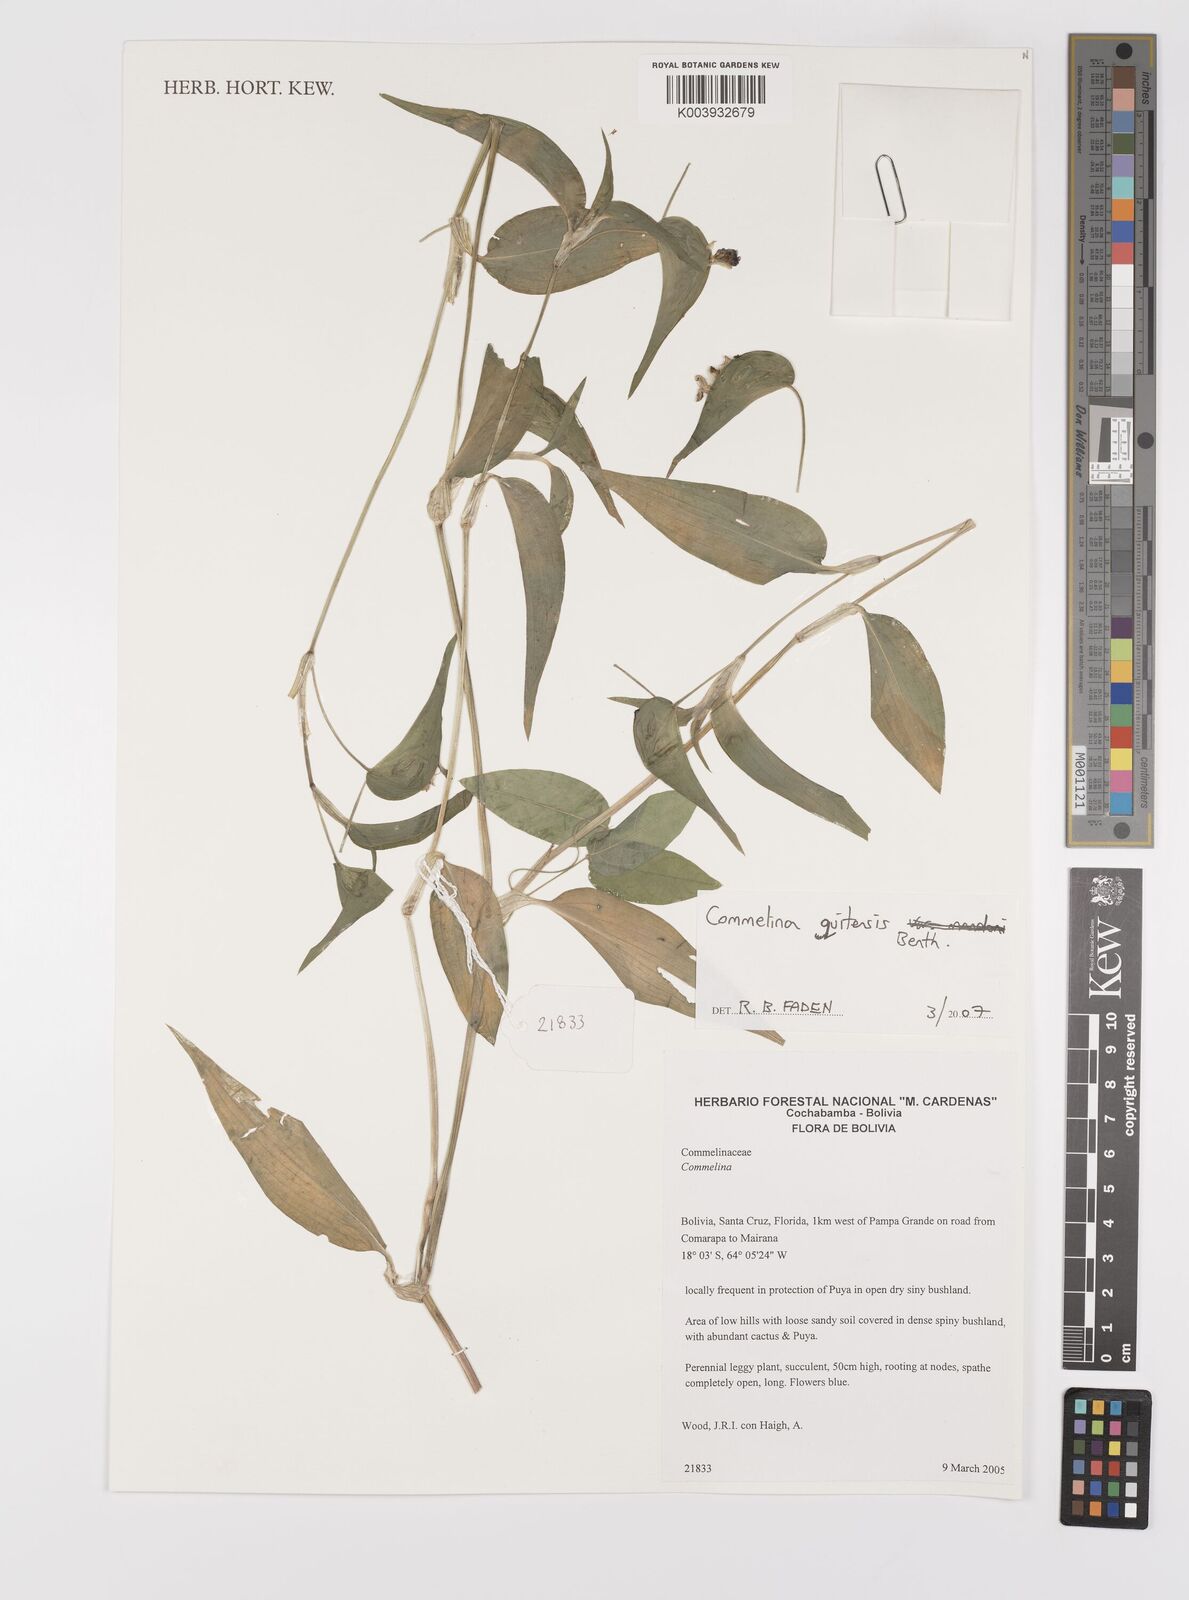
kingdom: Plantae
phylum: Tracheophyta
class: Liliopsida
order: Commelinales
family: Commelinaceae
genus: Commelina
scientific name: Commelina quitensis
